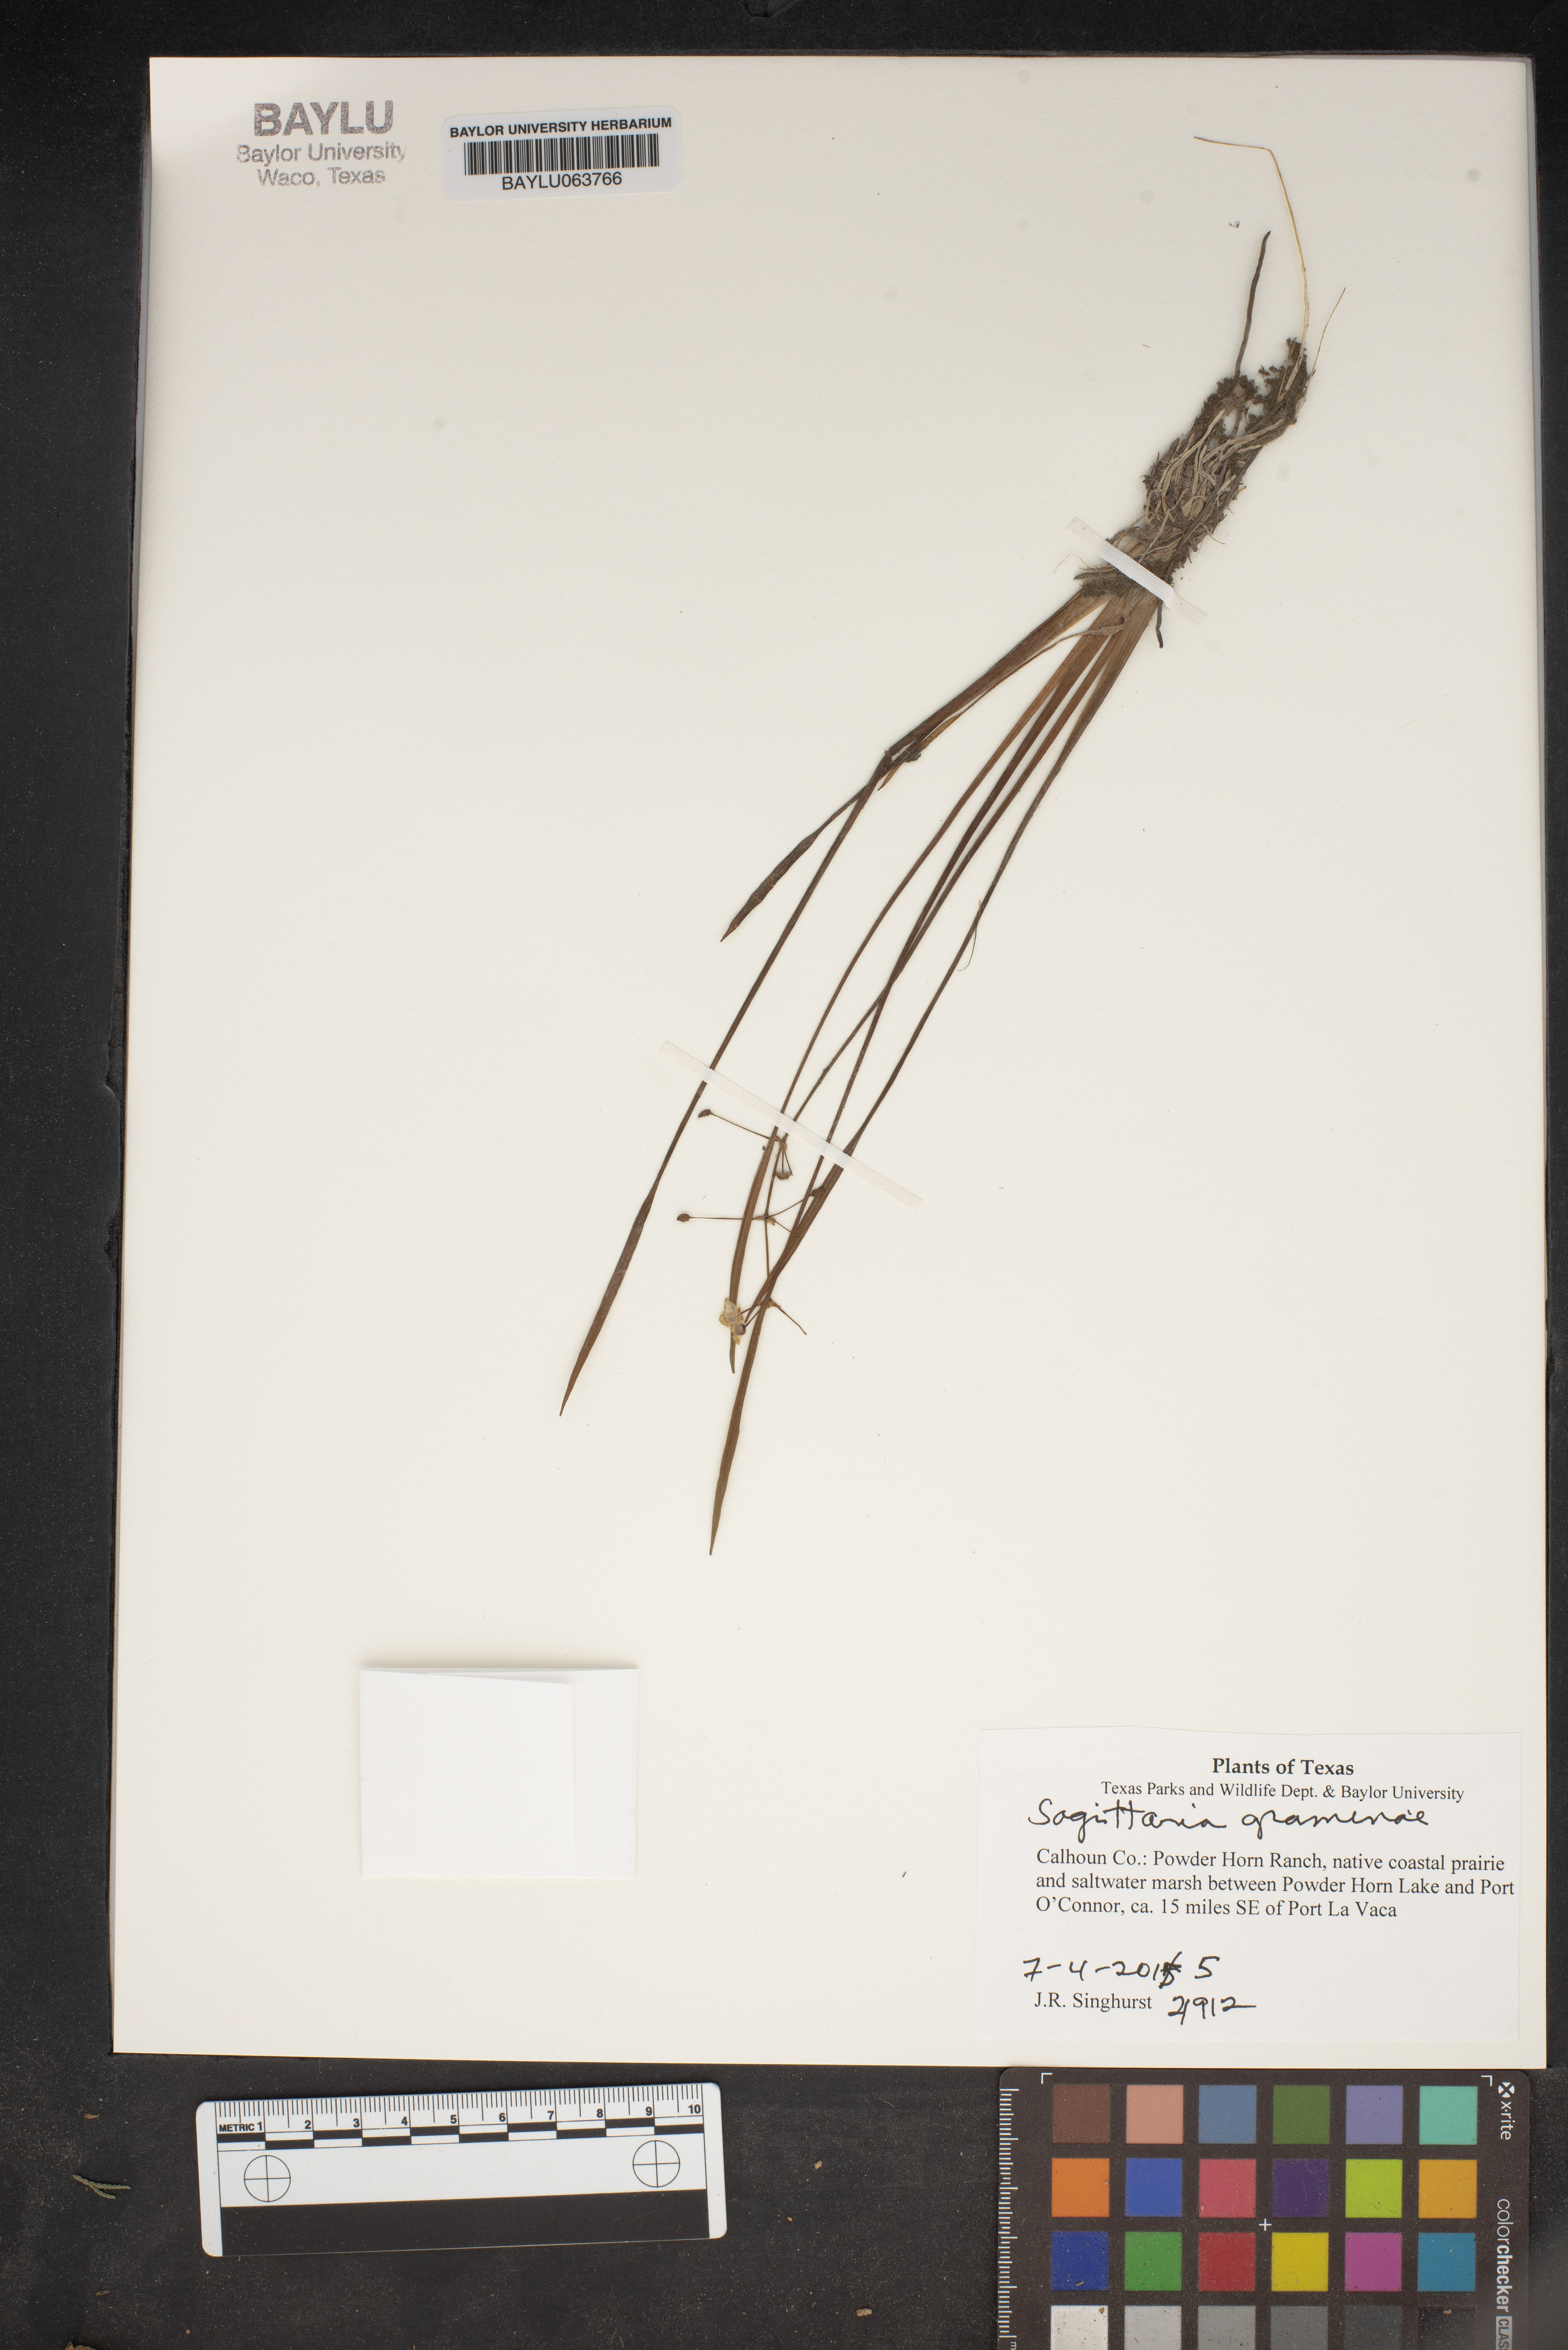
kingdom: Plantae
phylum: Tracheophyta
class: Magnoliopsida
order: Malpighiales
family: Euphorbiaceae
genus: Triadica
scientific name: Triadica sebifera
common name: Chinese tallow
